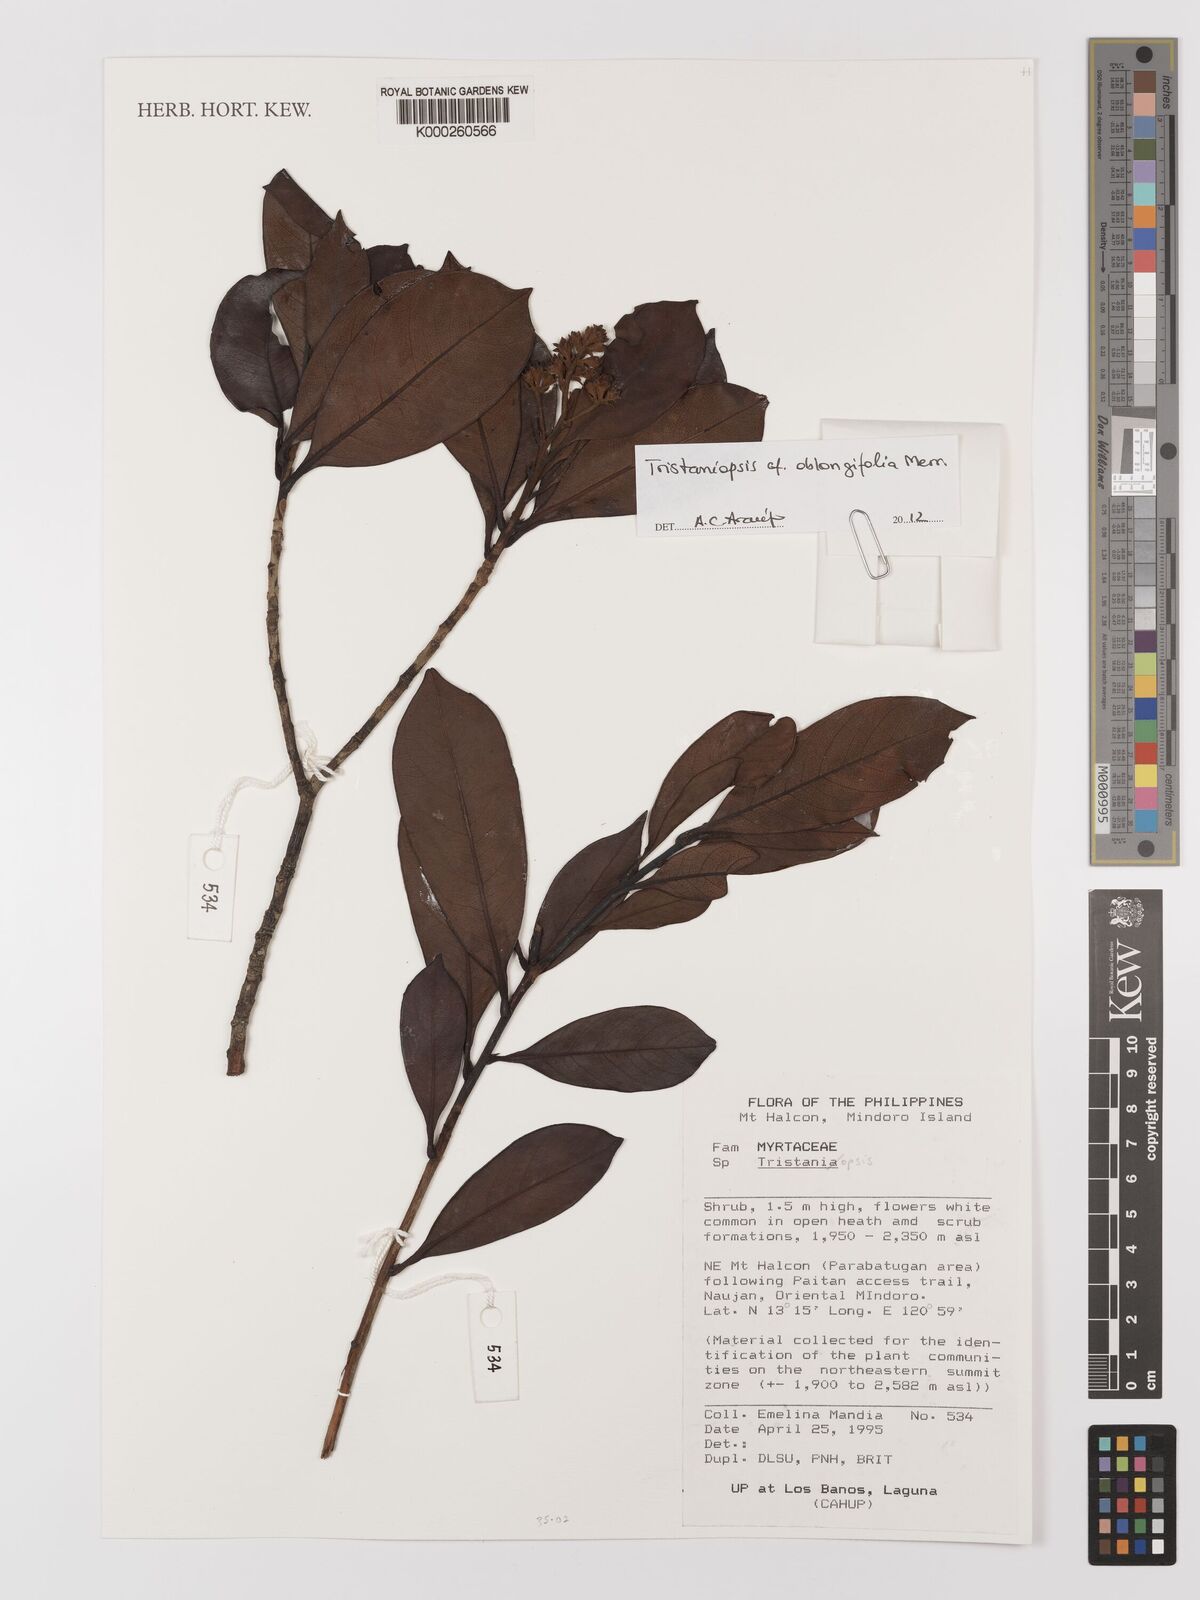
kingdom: Plantae
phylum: Tracheophyta
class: Magnoliopsida
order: Myrtales
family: Melastomataceae
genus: Memecylon
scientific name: Memecylon
